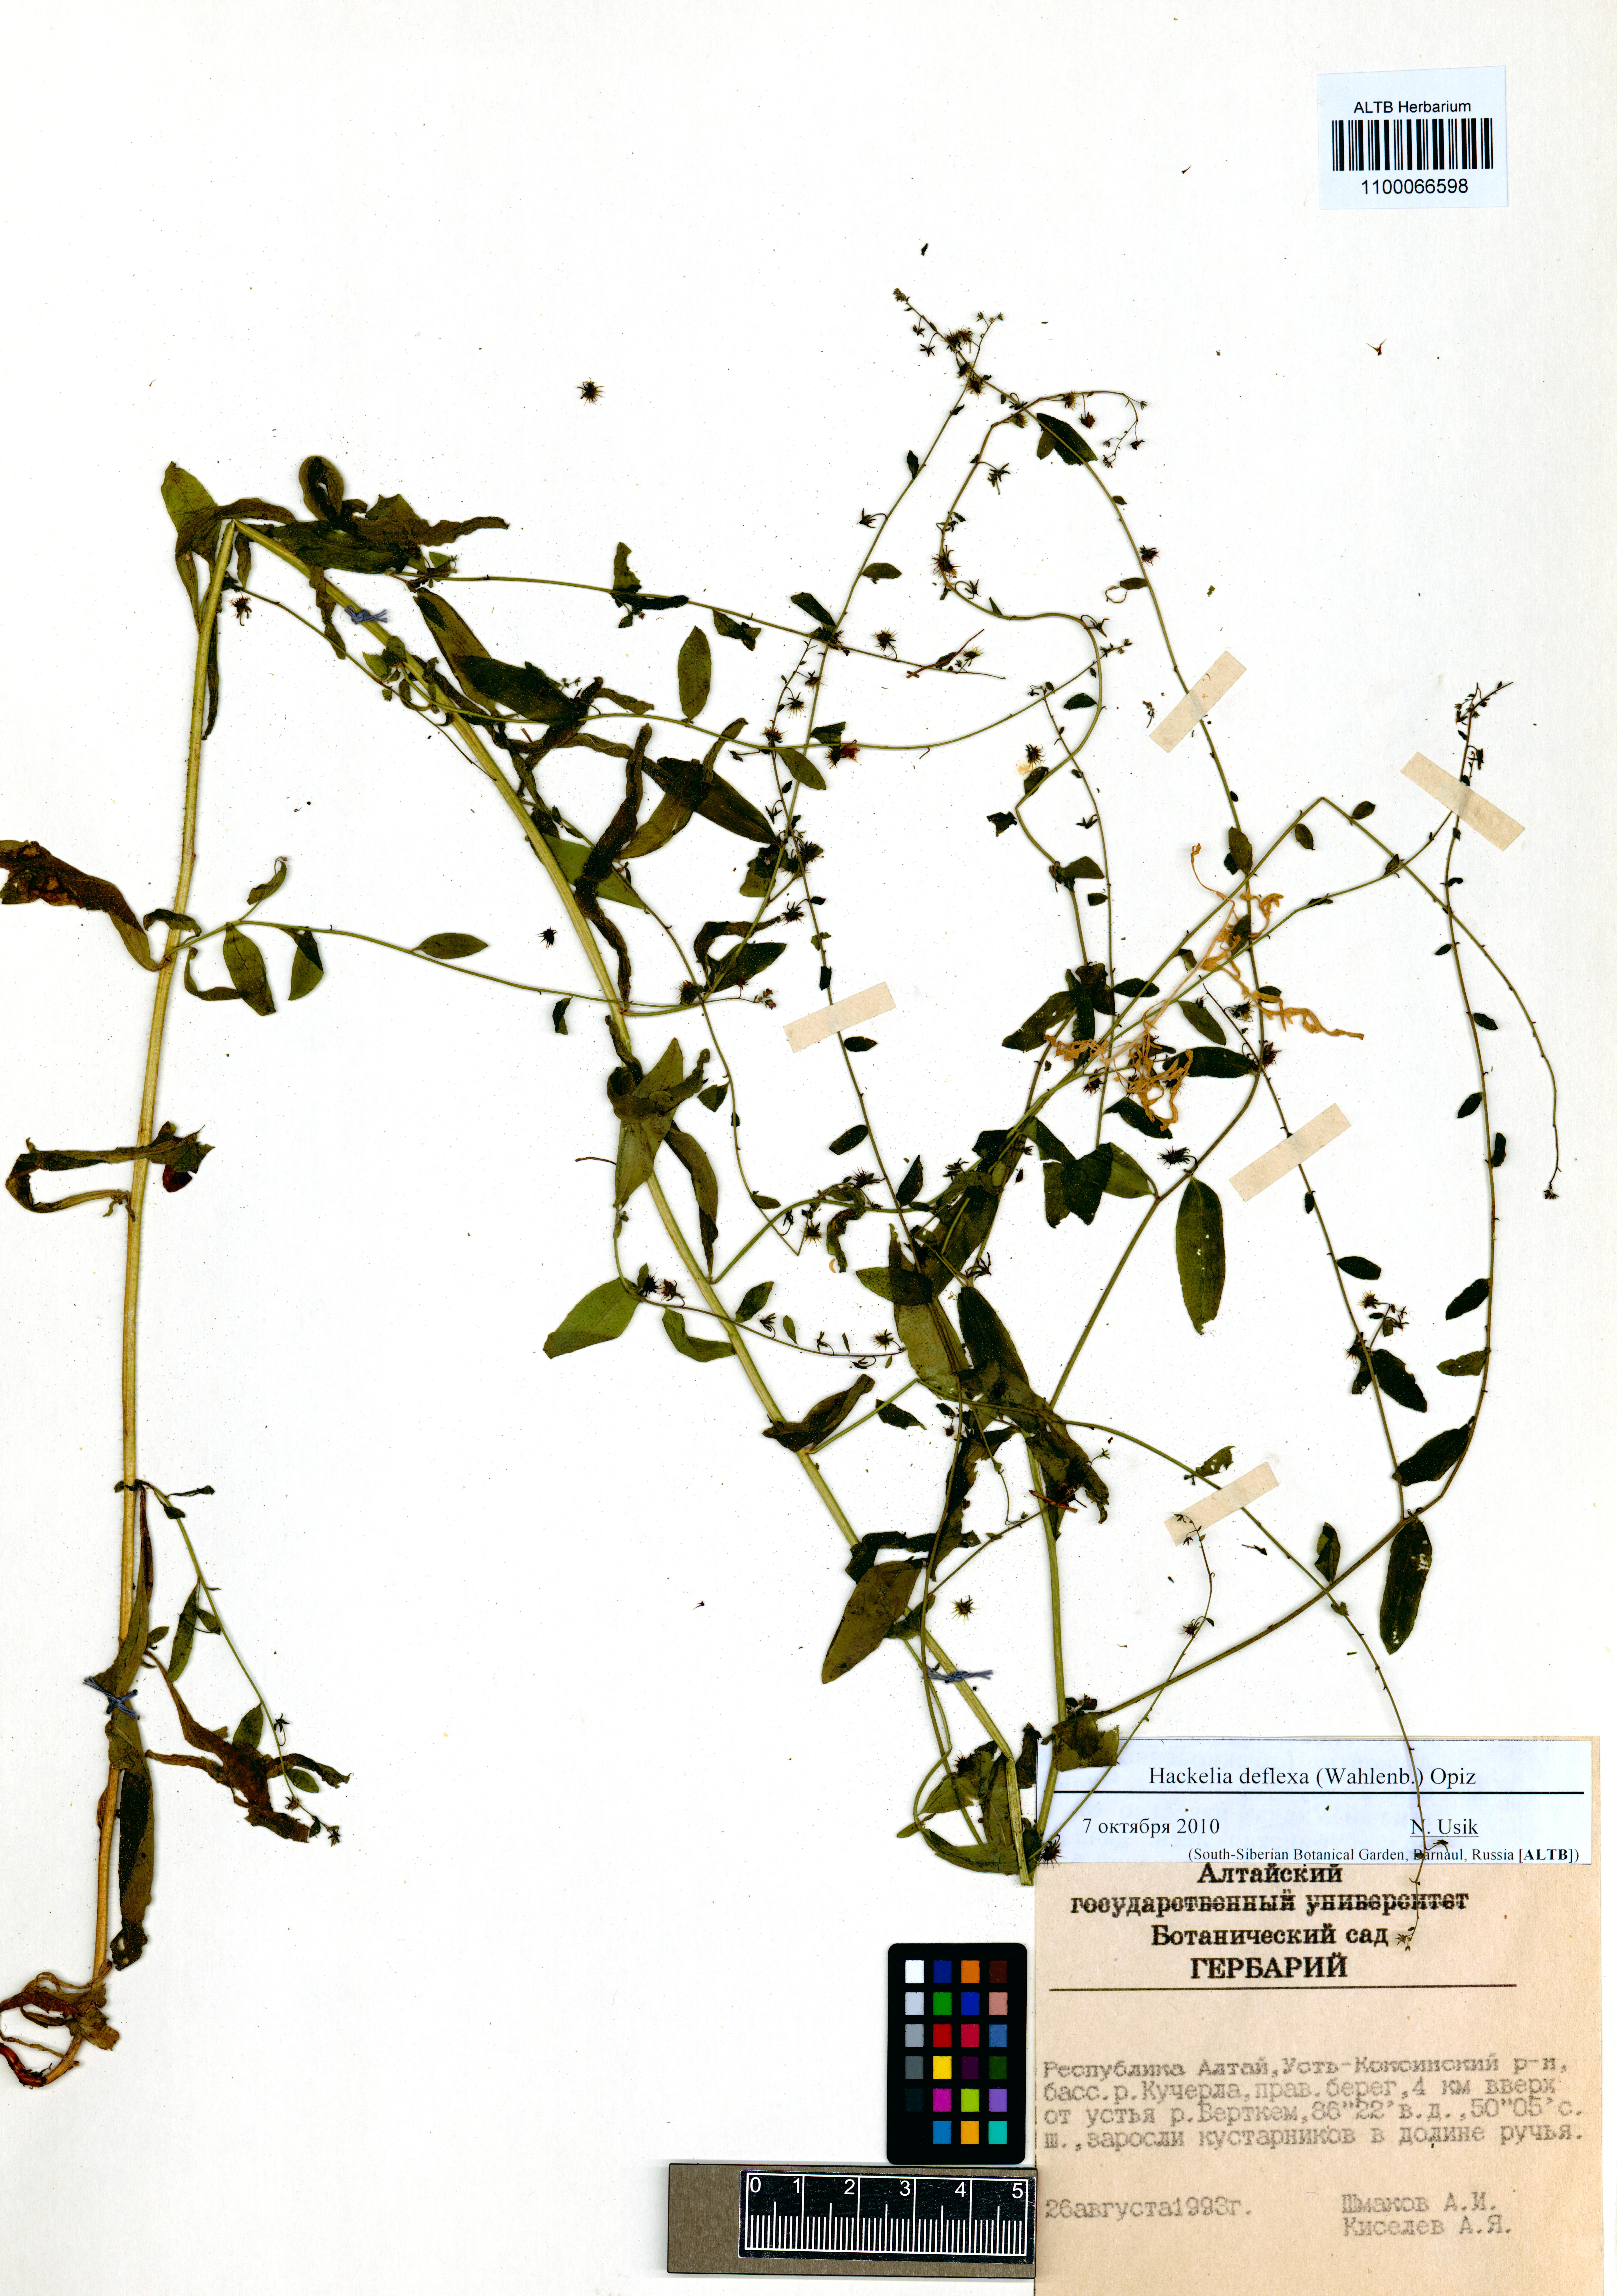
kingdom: Plantae
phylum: Tracheophyta
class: Magnoliopsida
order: Boraginales
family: Boraginaceae
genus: Hackelia
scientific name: Hackelia deflexa
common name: Nodding stickseed
